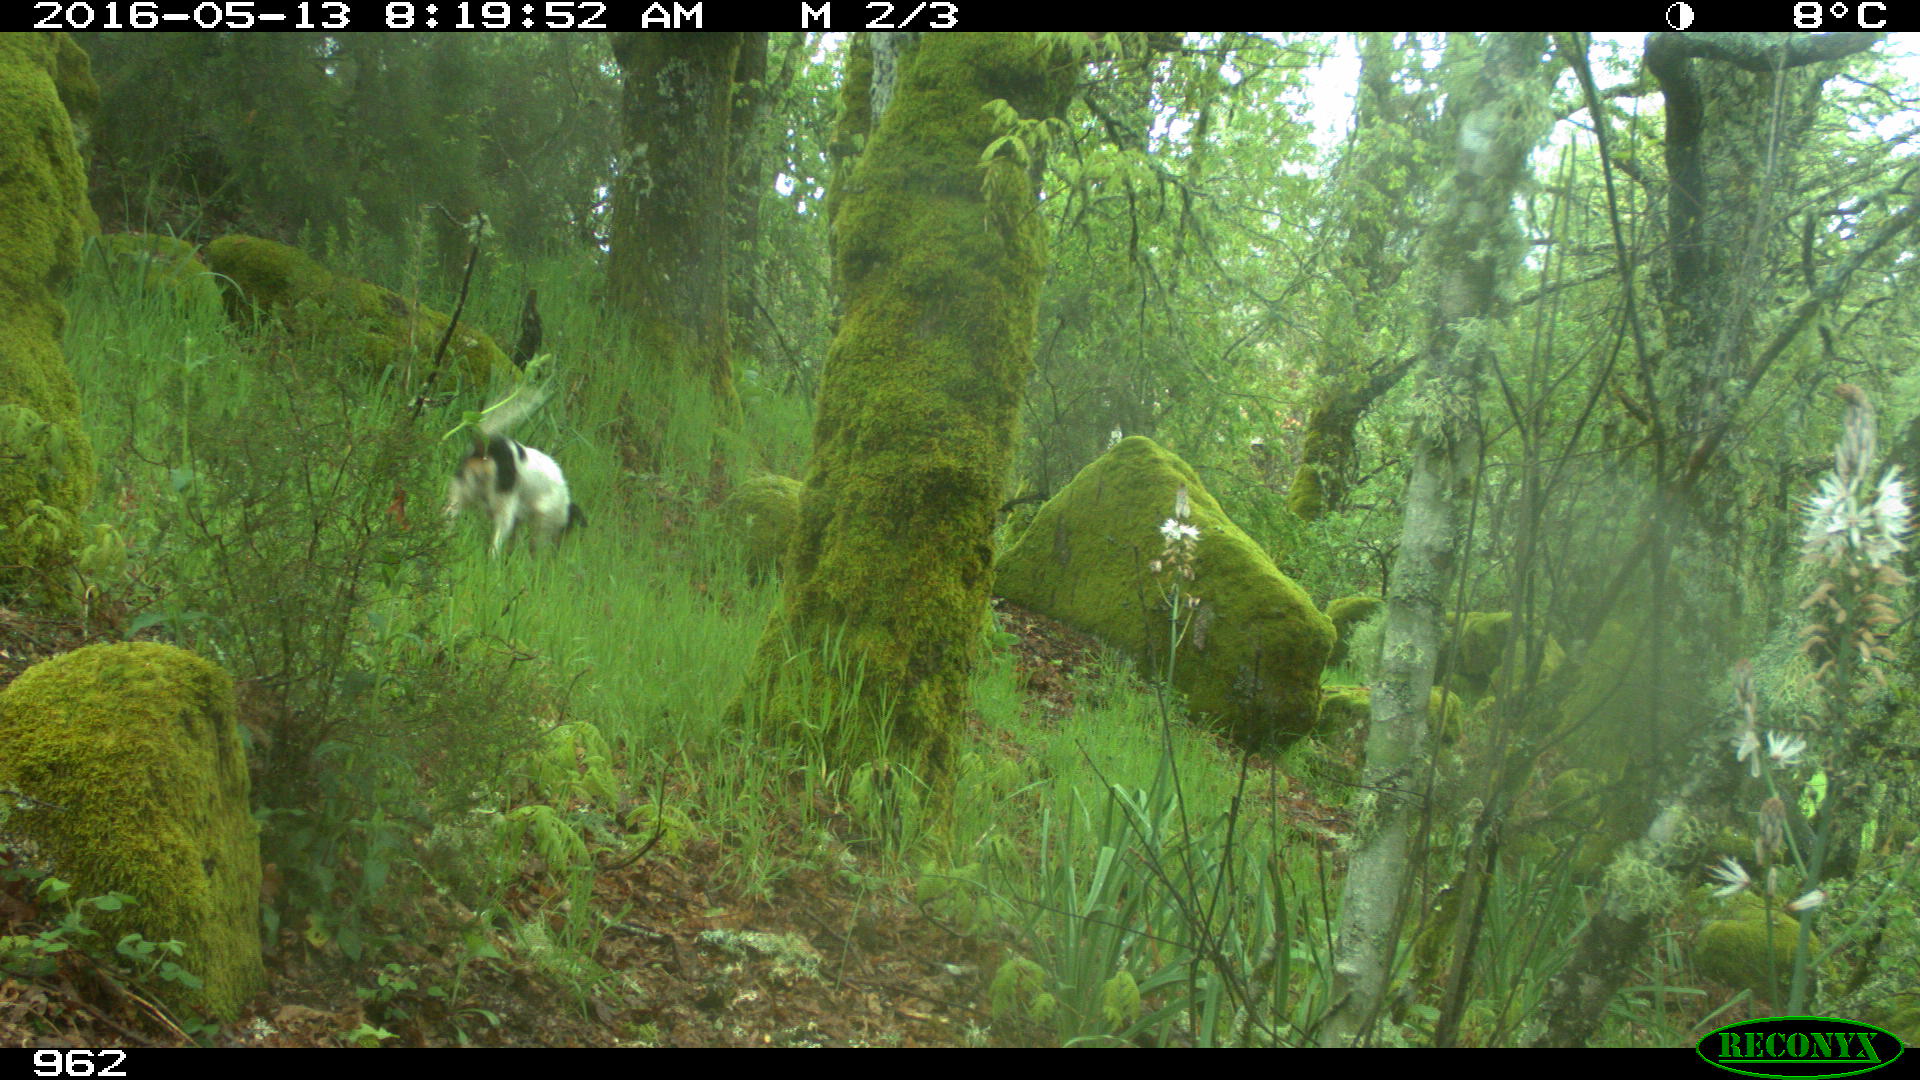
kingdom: Animalia
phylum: Chordata
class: Mammalia
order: Carnivora
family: Canidae
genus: Canis
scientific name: Canis lupus
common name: Gray wolf
